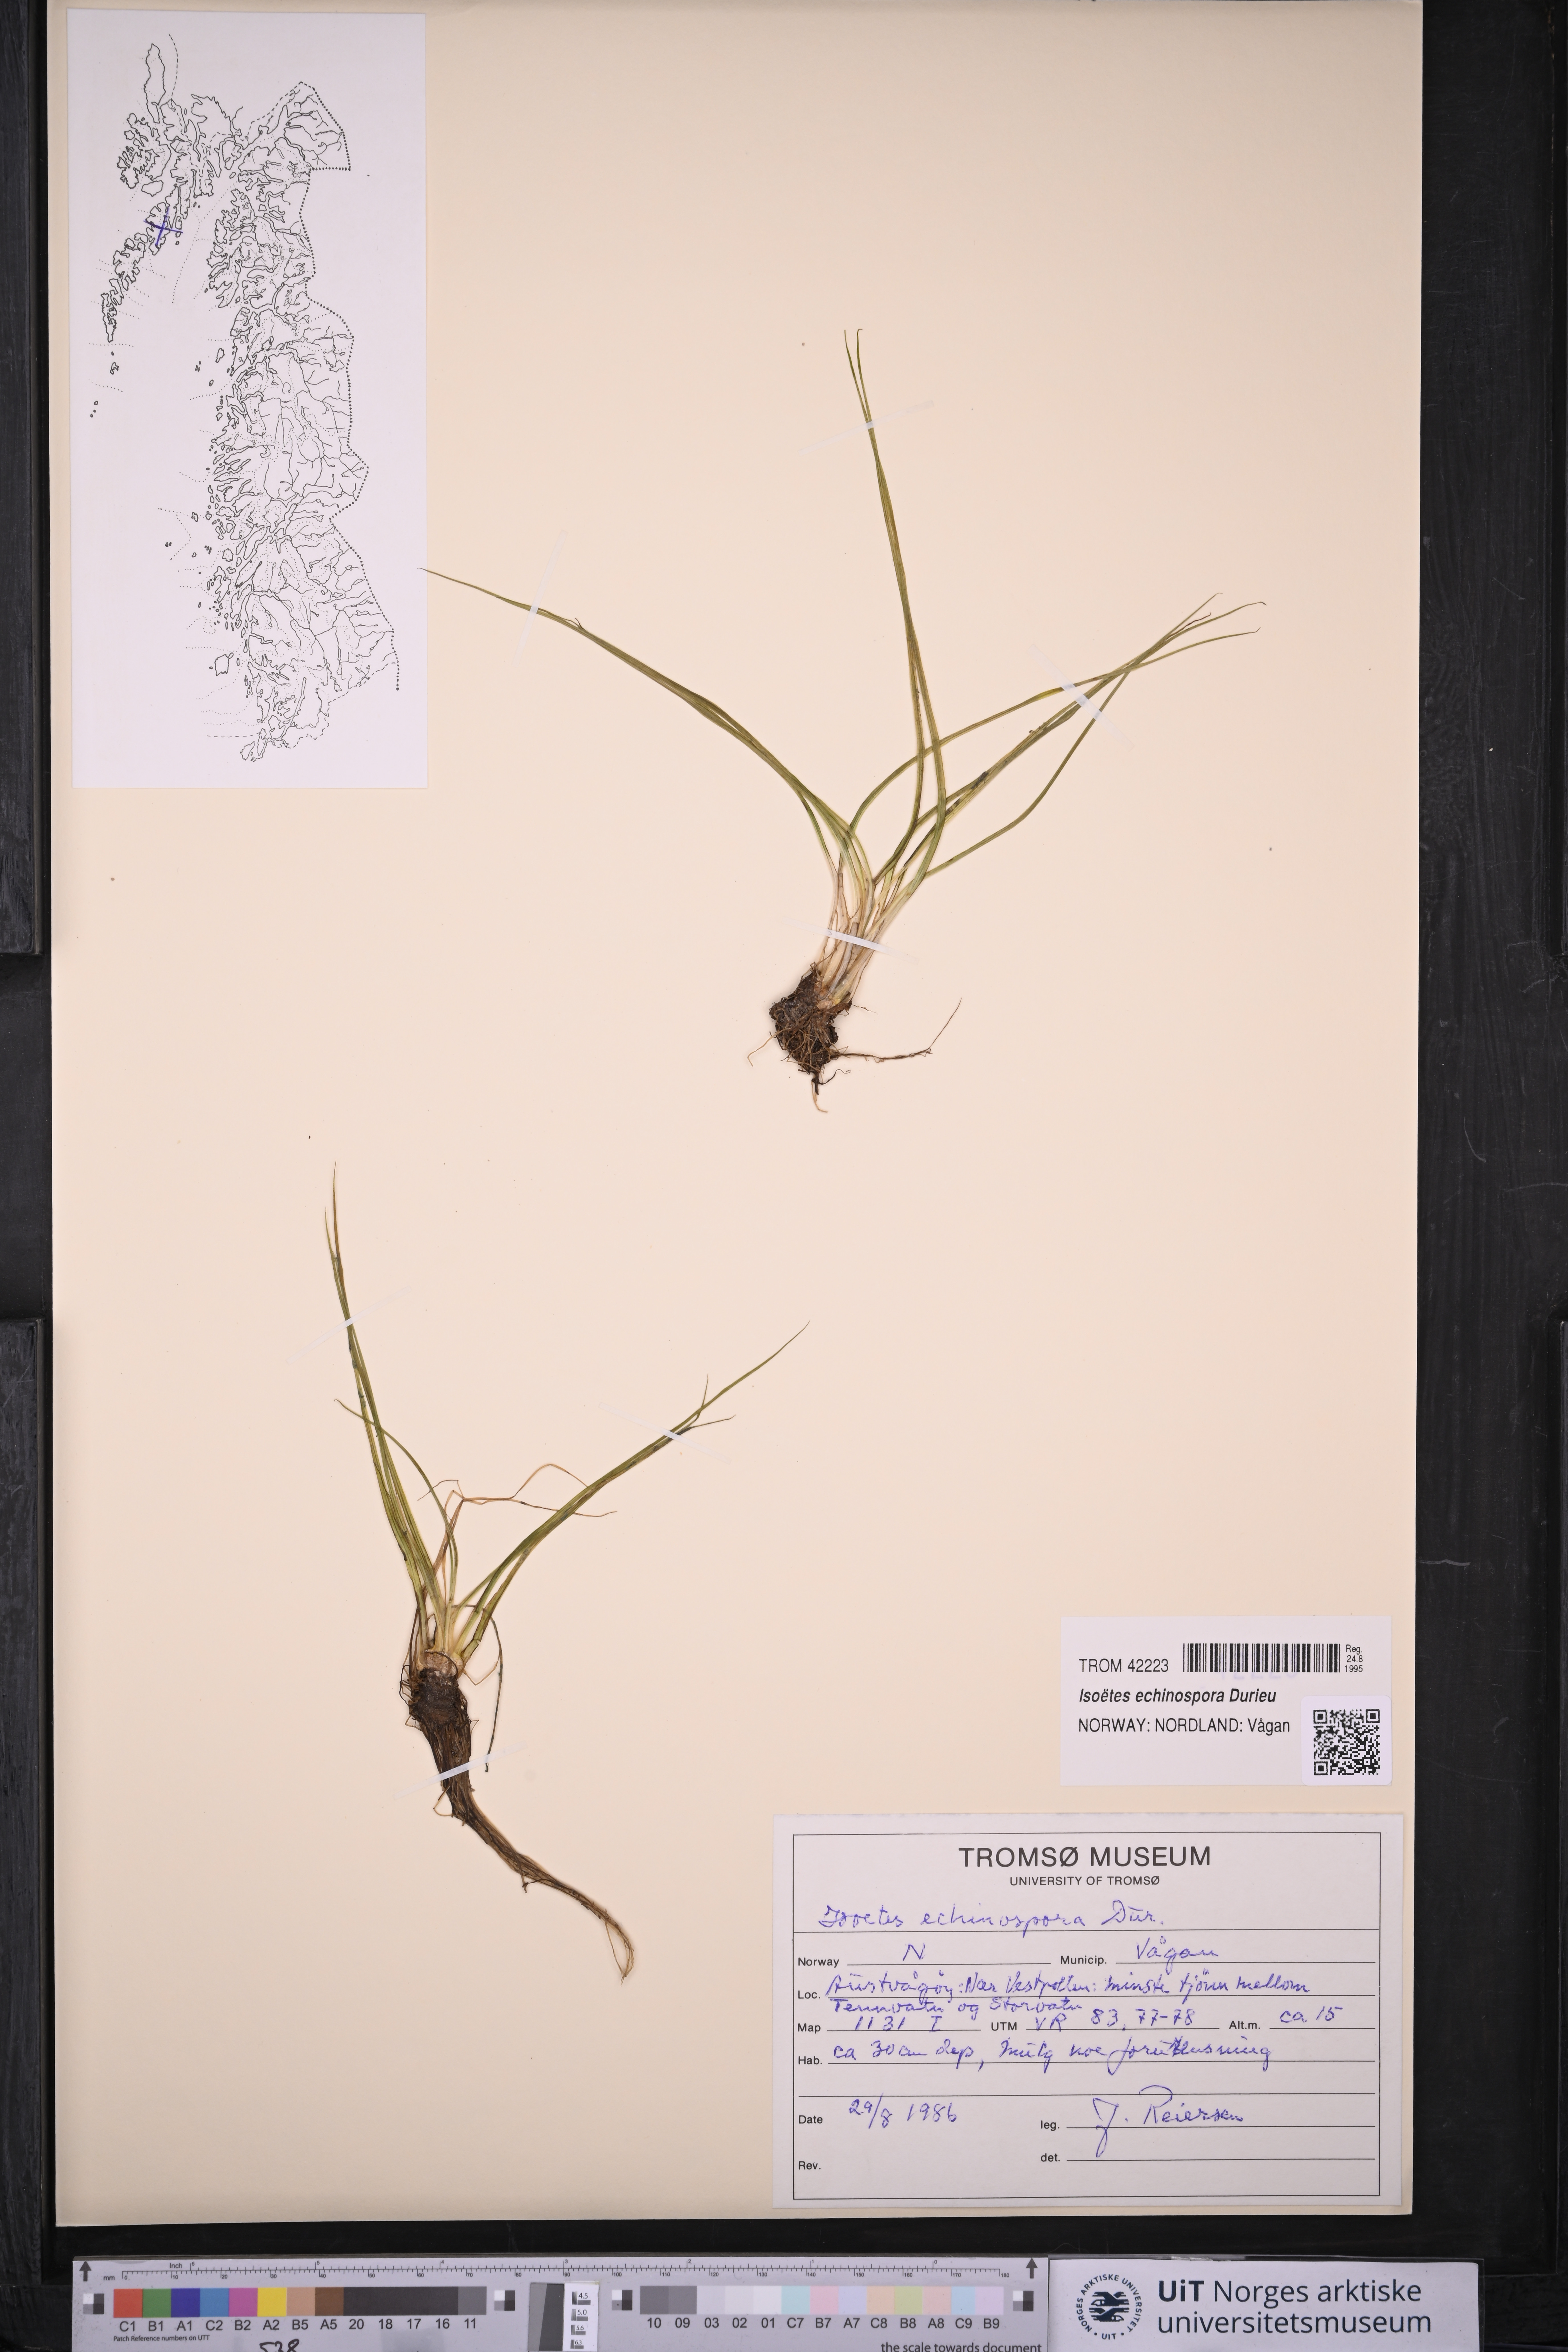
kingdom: Plantae
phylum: Tracheophyta
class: Lycopodiopsida
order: Isoetales
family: Isoetaceae
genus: Isoetes
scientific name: Isoetes echinospora
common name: Spring quillwort
